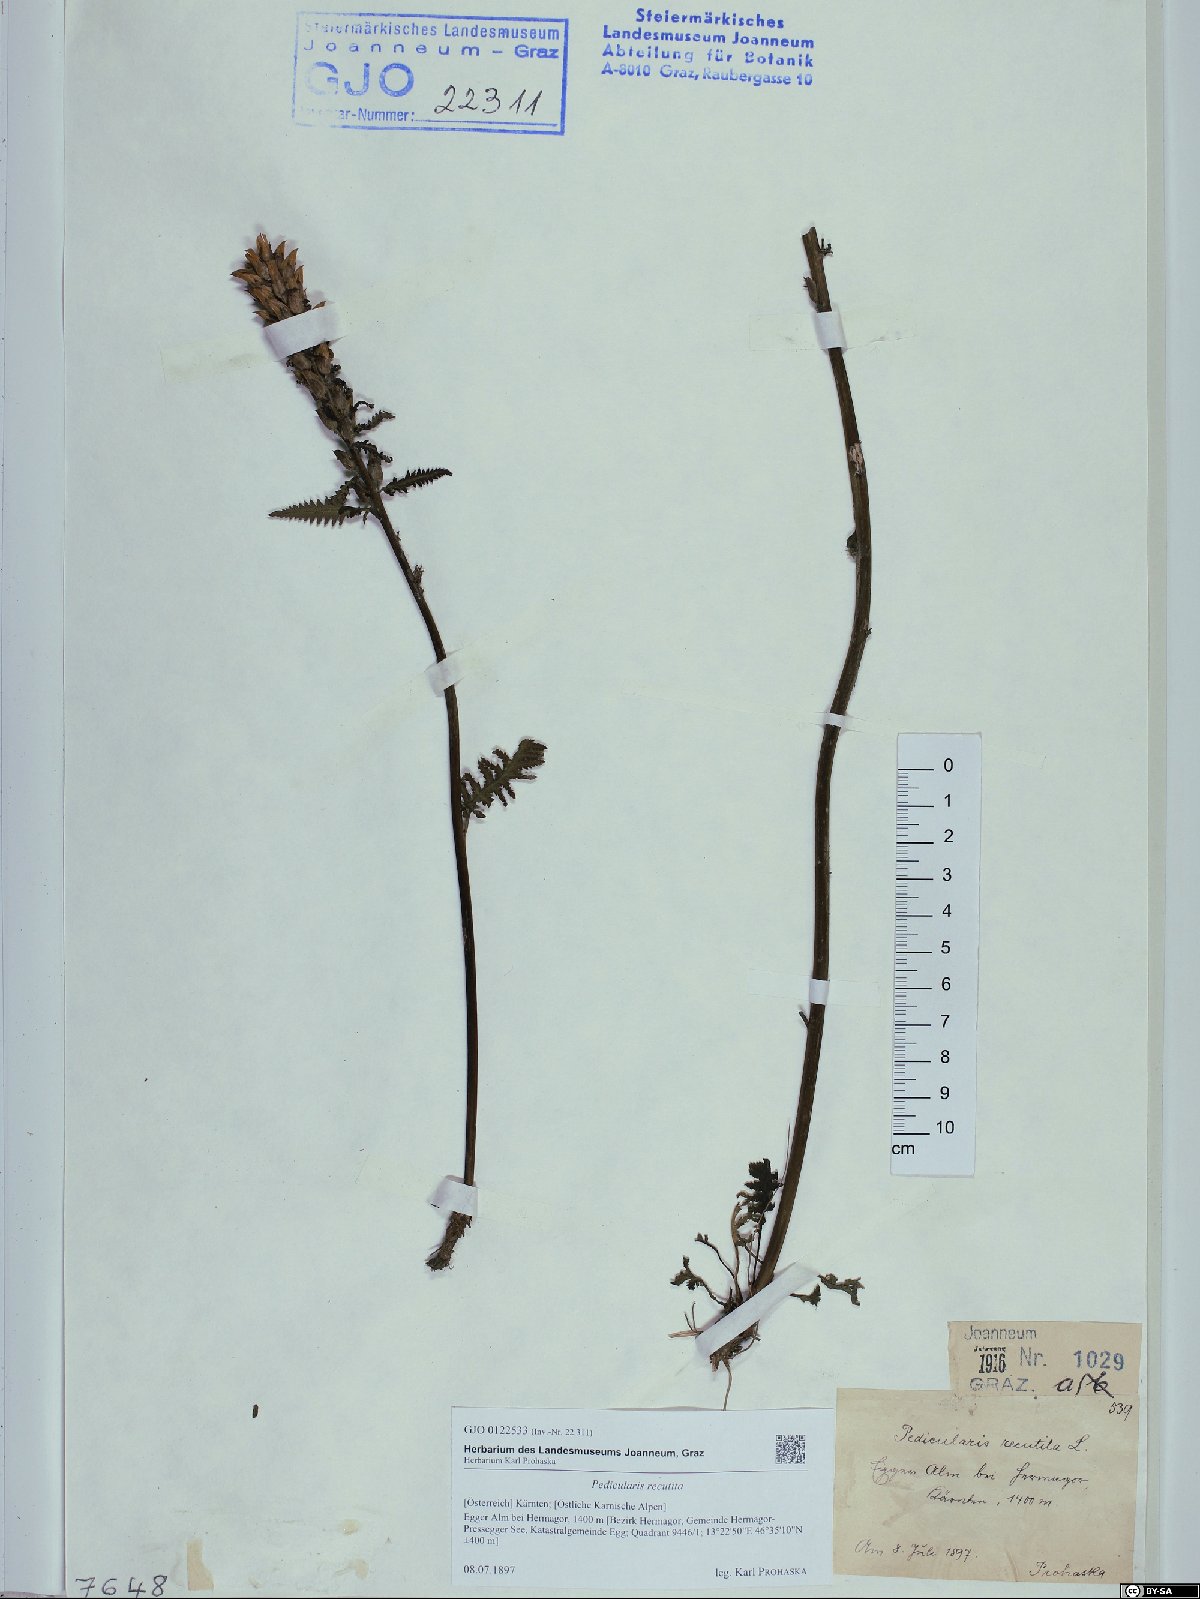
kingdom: Plantae
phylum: Tracheophyta
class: Magnoliopsida
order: Lamiales
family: Orobanchaceae
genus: Pedicularis
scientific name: Pedicularis recutita
